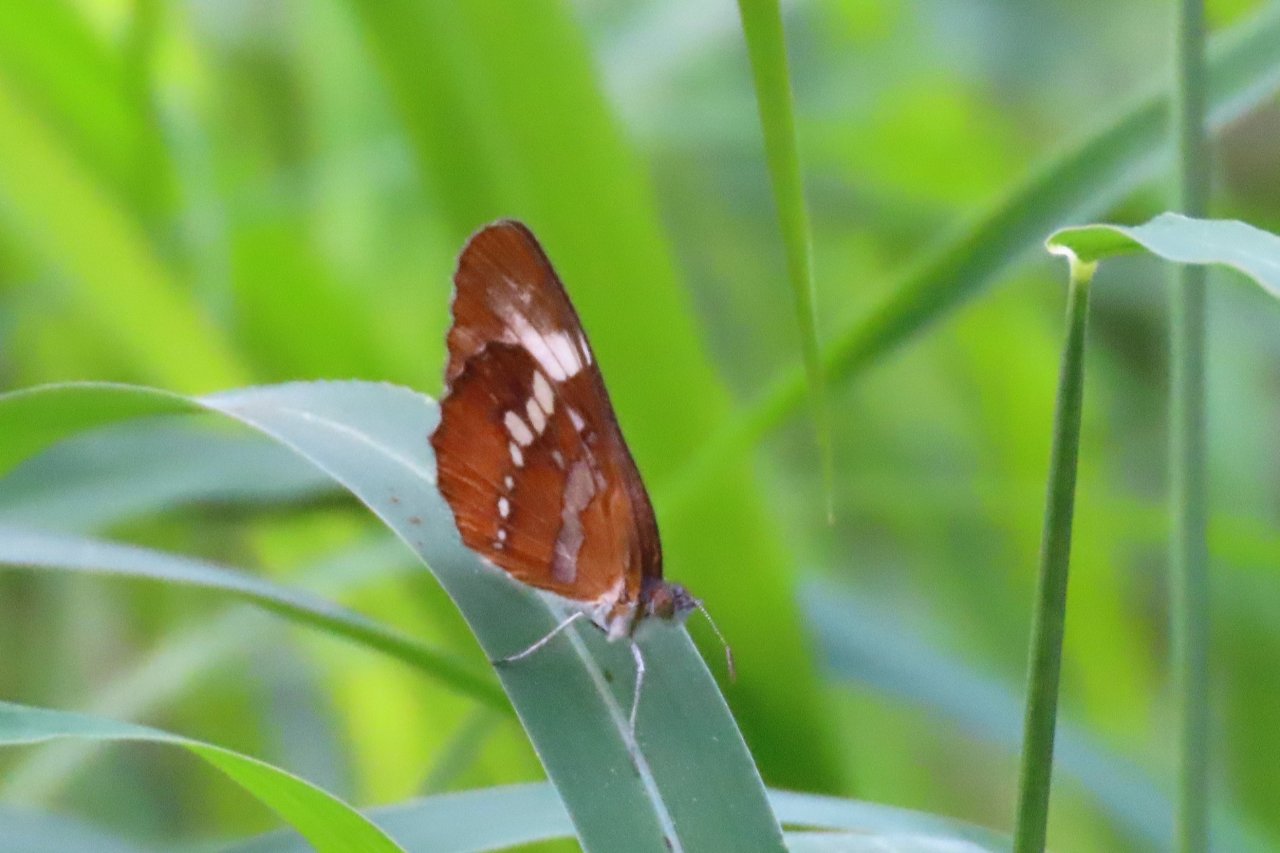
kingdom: Animalia
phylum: Arthropoda
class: Insecta
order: Lepidoptera
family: Nymphalidae
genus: Mestra
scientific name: Mestra amymone
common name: Common Mestra
